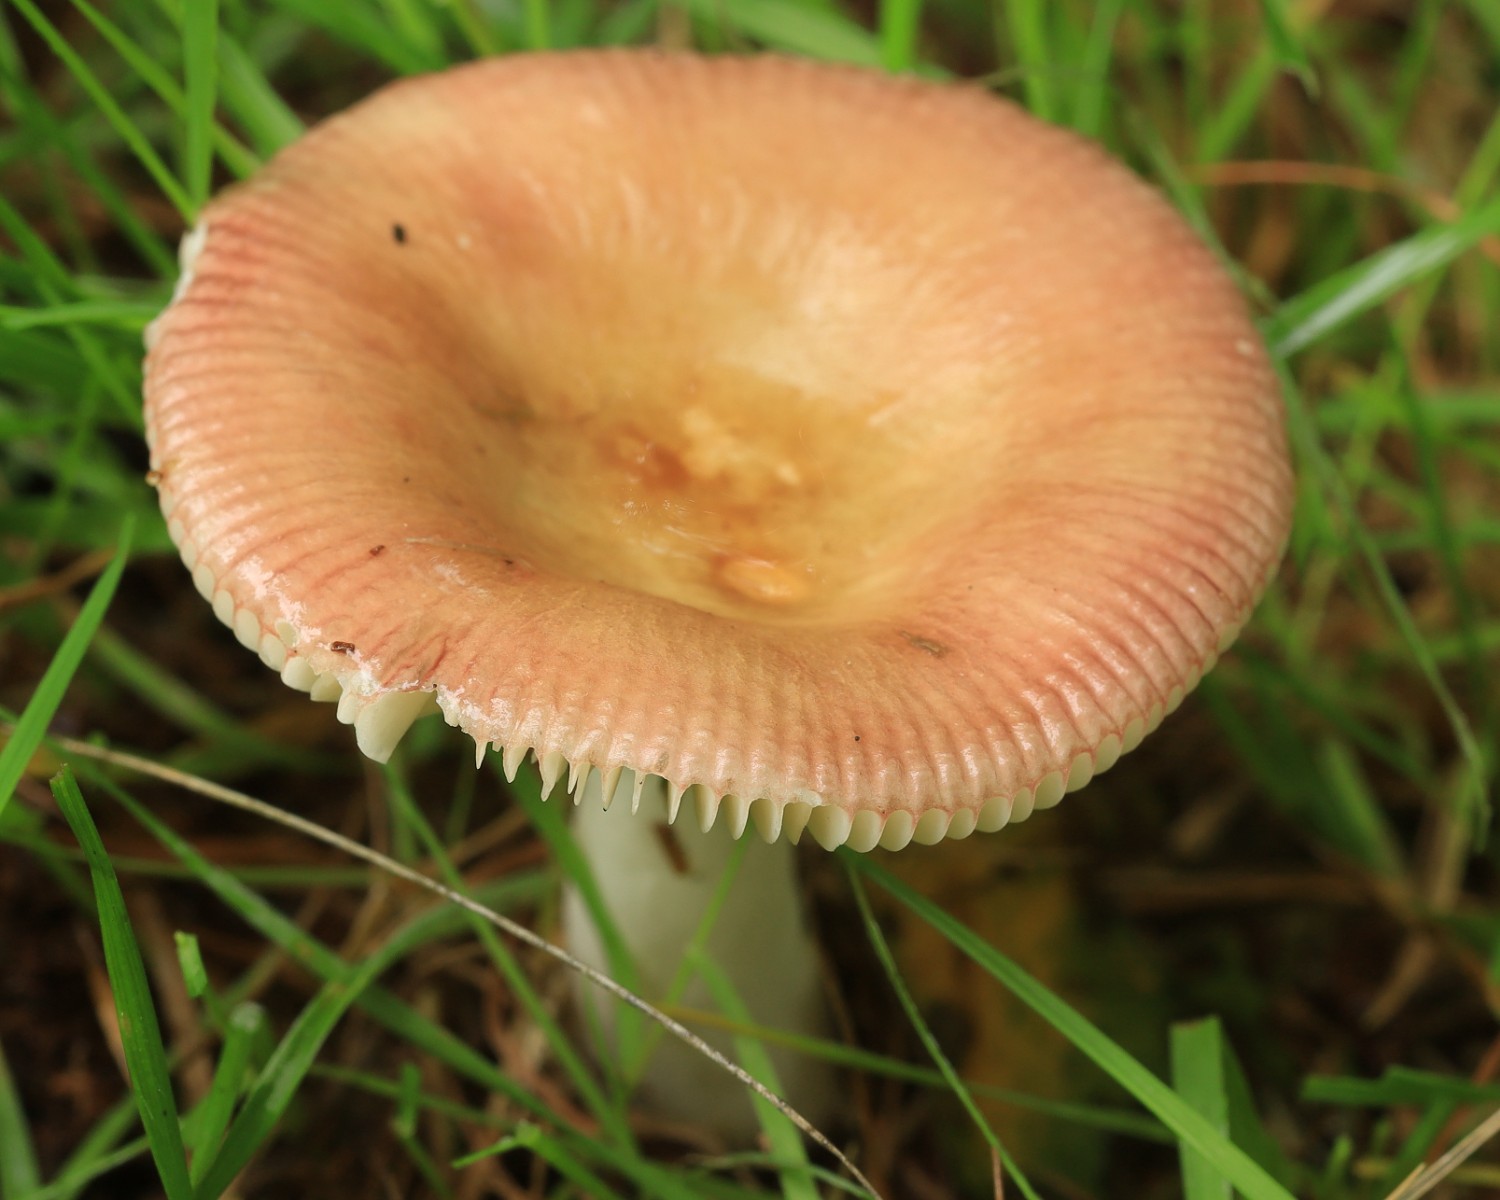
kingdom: Fungi
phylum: Basidiomycota
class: Agaricomycetes
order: Russulales
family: Russulaceae
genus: Russula
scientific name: Russula nitida
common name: året skørhat
